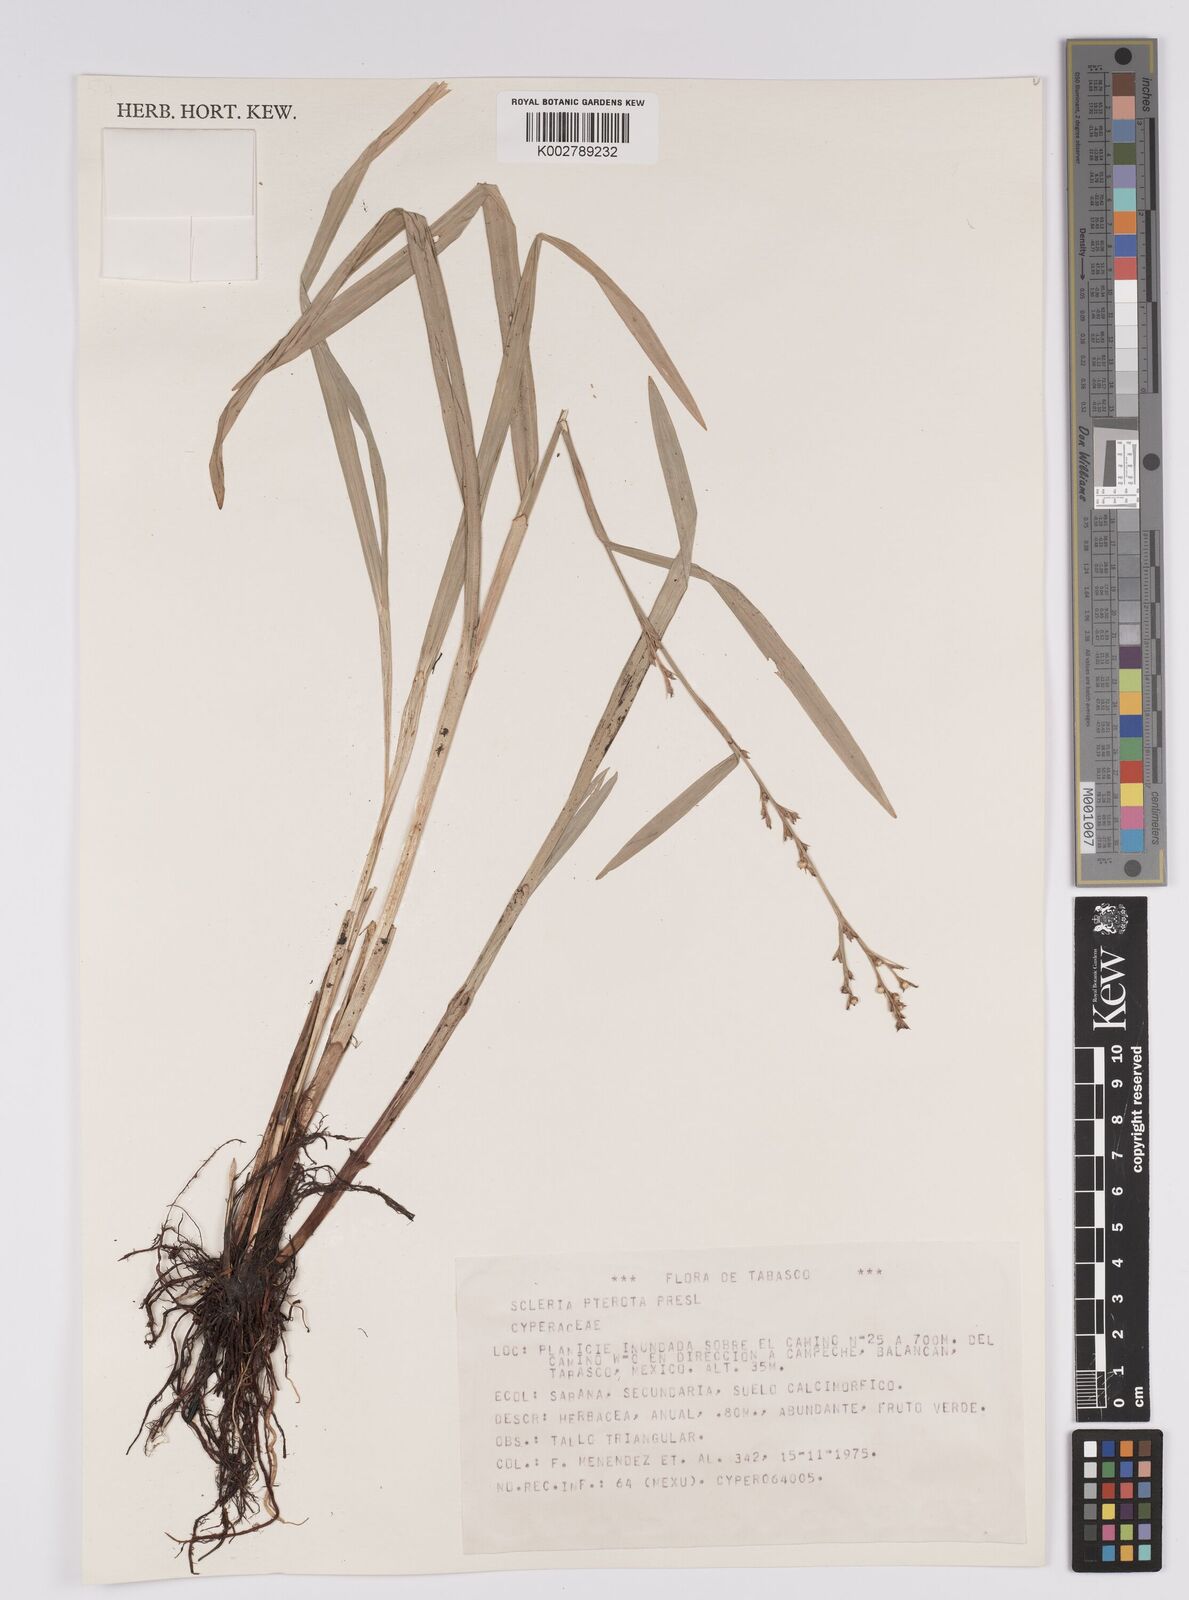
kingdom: Plantae
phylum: Tracheophyta
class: Liliopsida
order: Poales
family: Cyperaceae
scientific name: Cyperaceae
